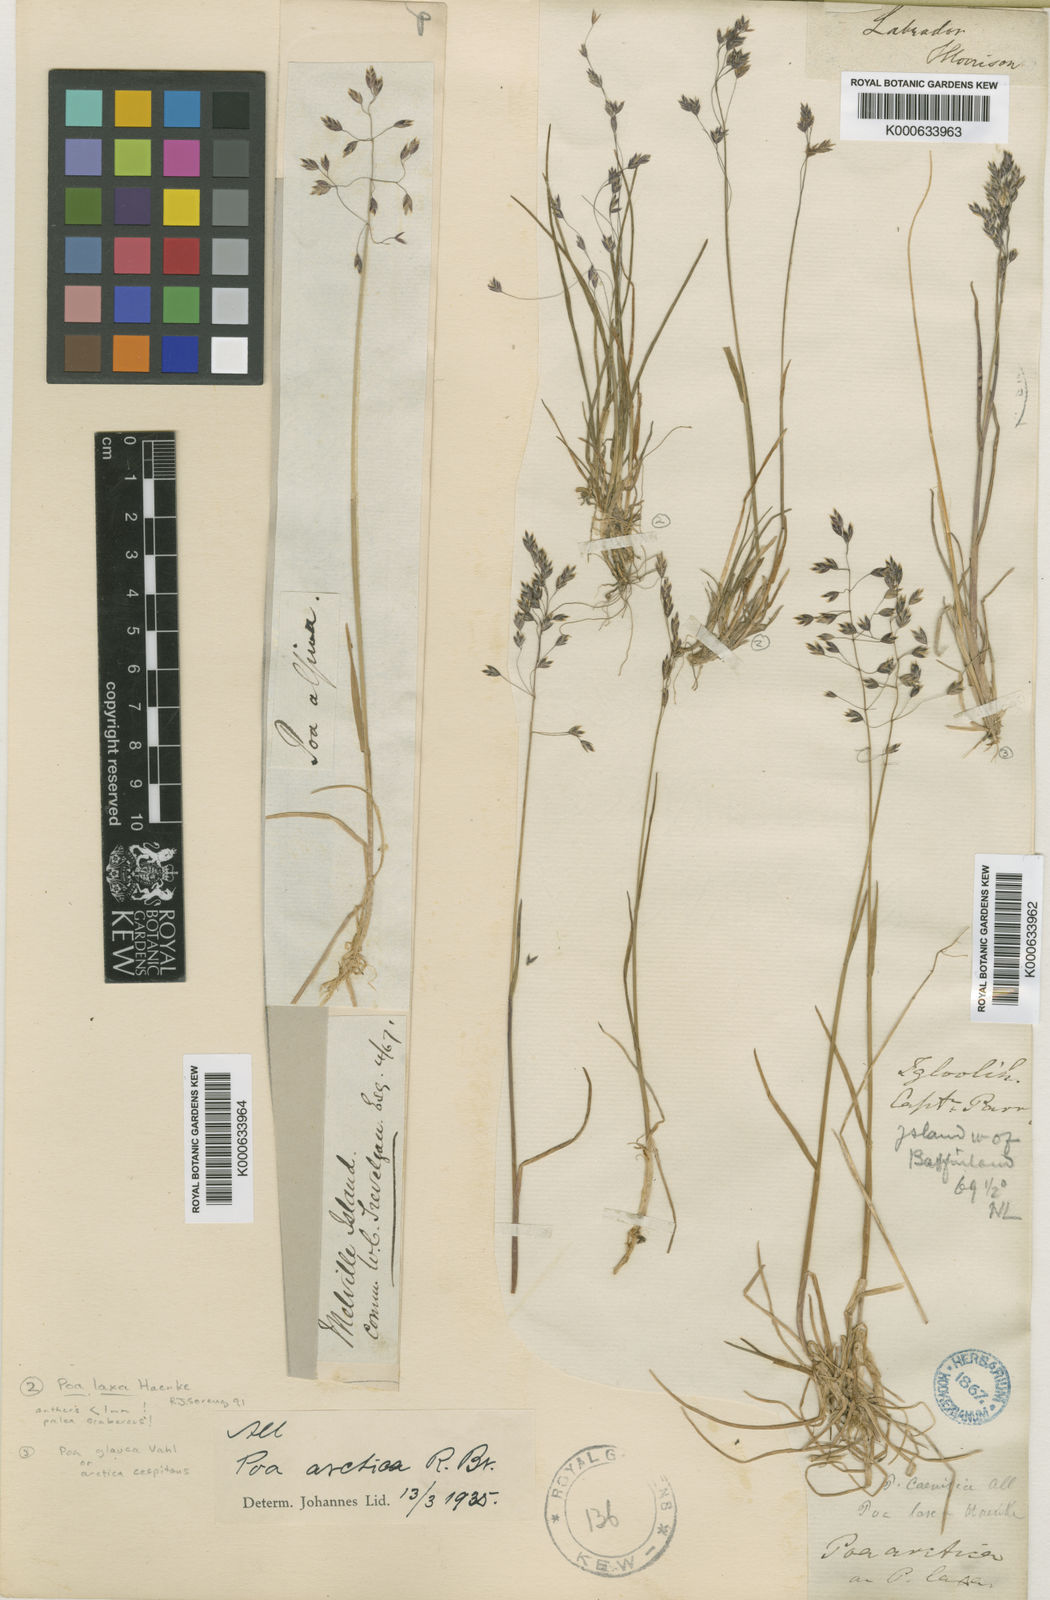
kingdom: Plantae
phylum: Tracheophyta
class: Liliopsida
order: Poales
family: Poaceae
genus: Poa
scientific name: Poa arctica
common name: Arctic bluegrass
